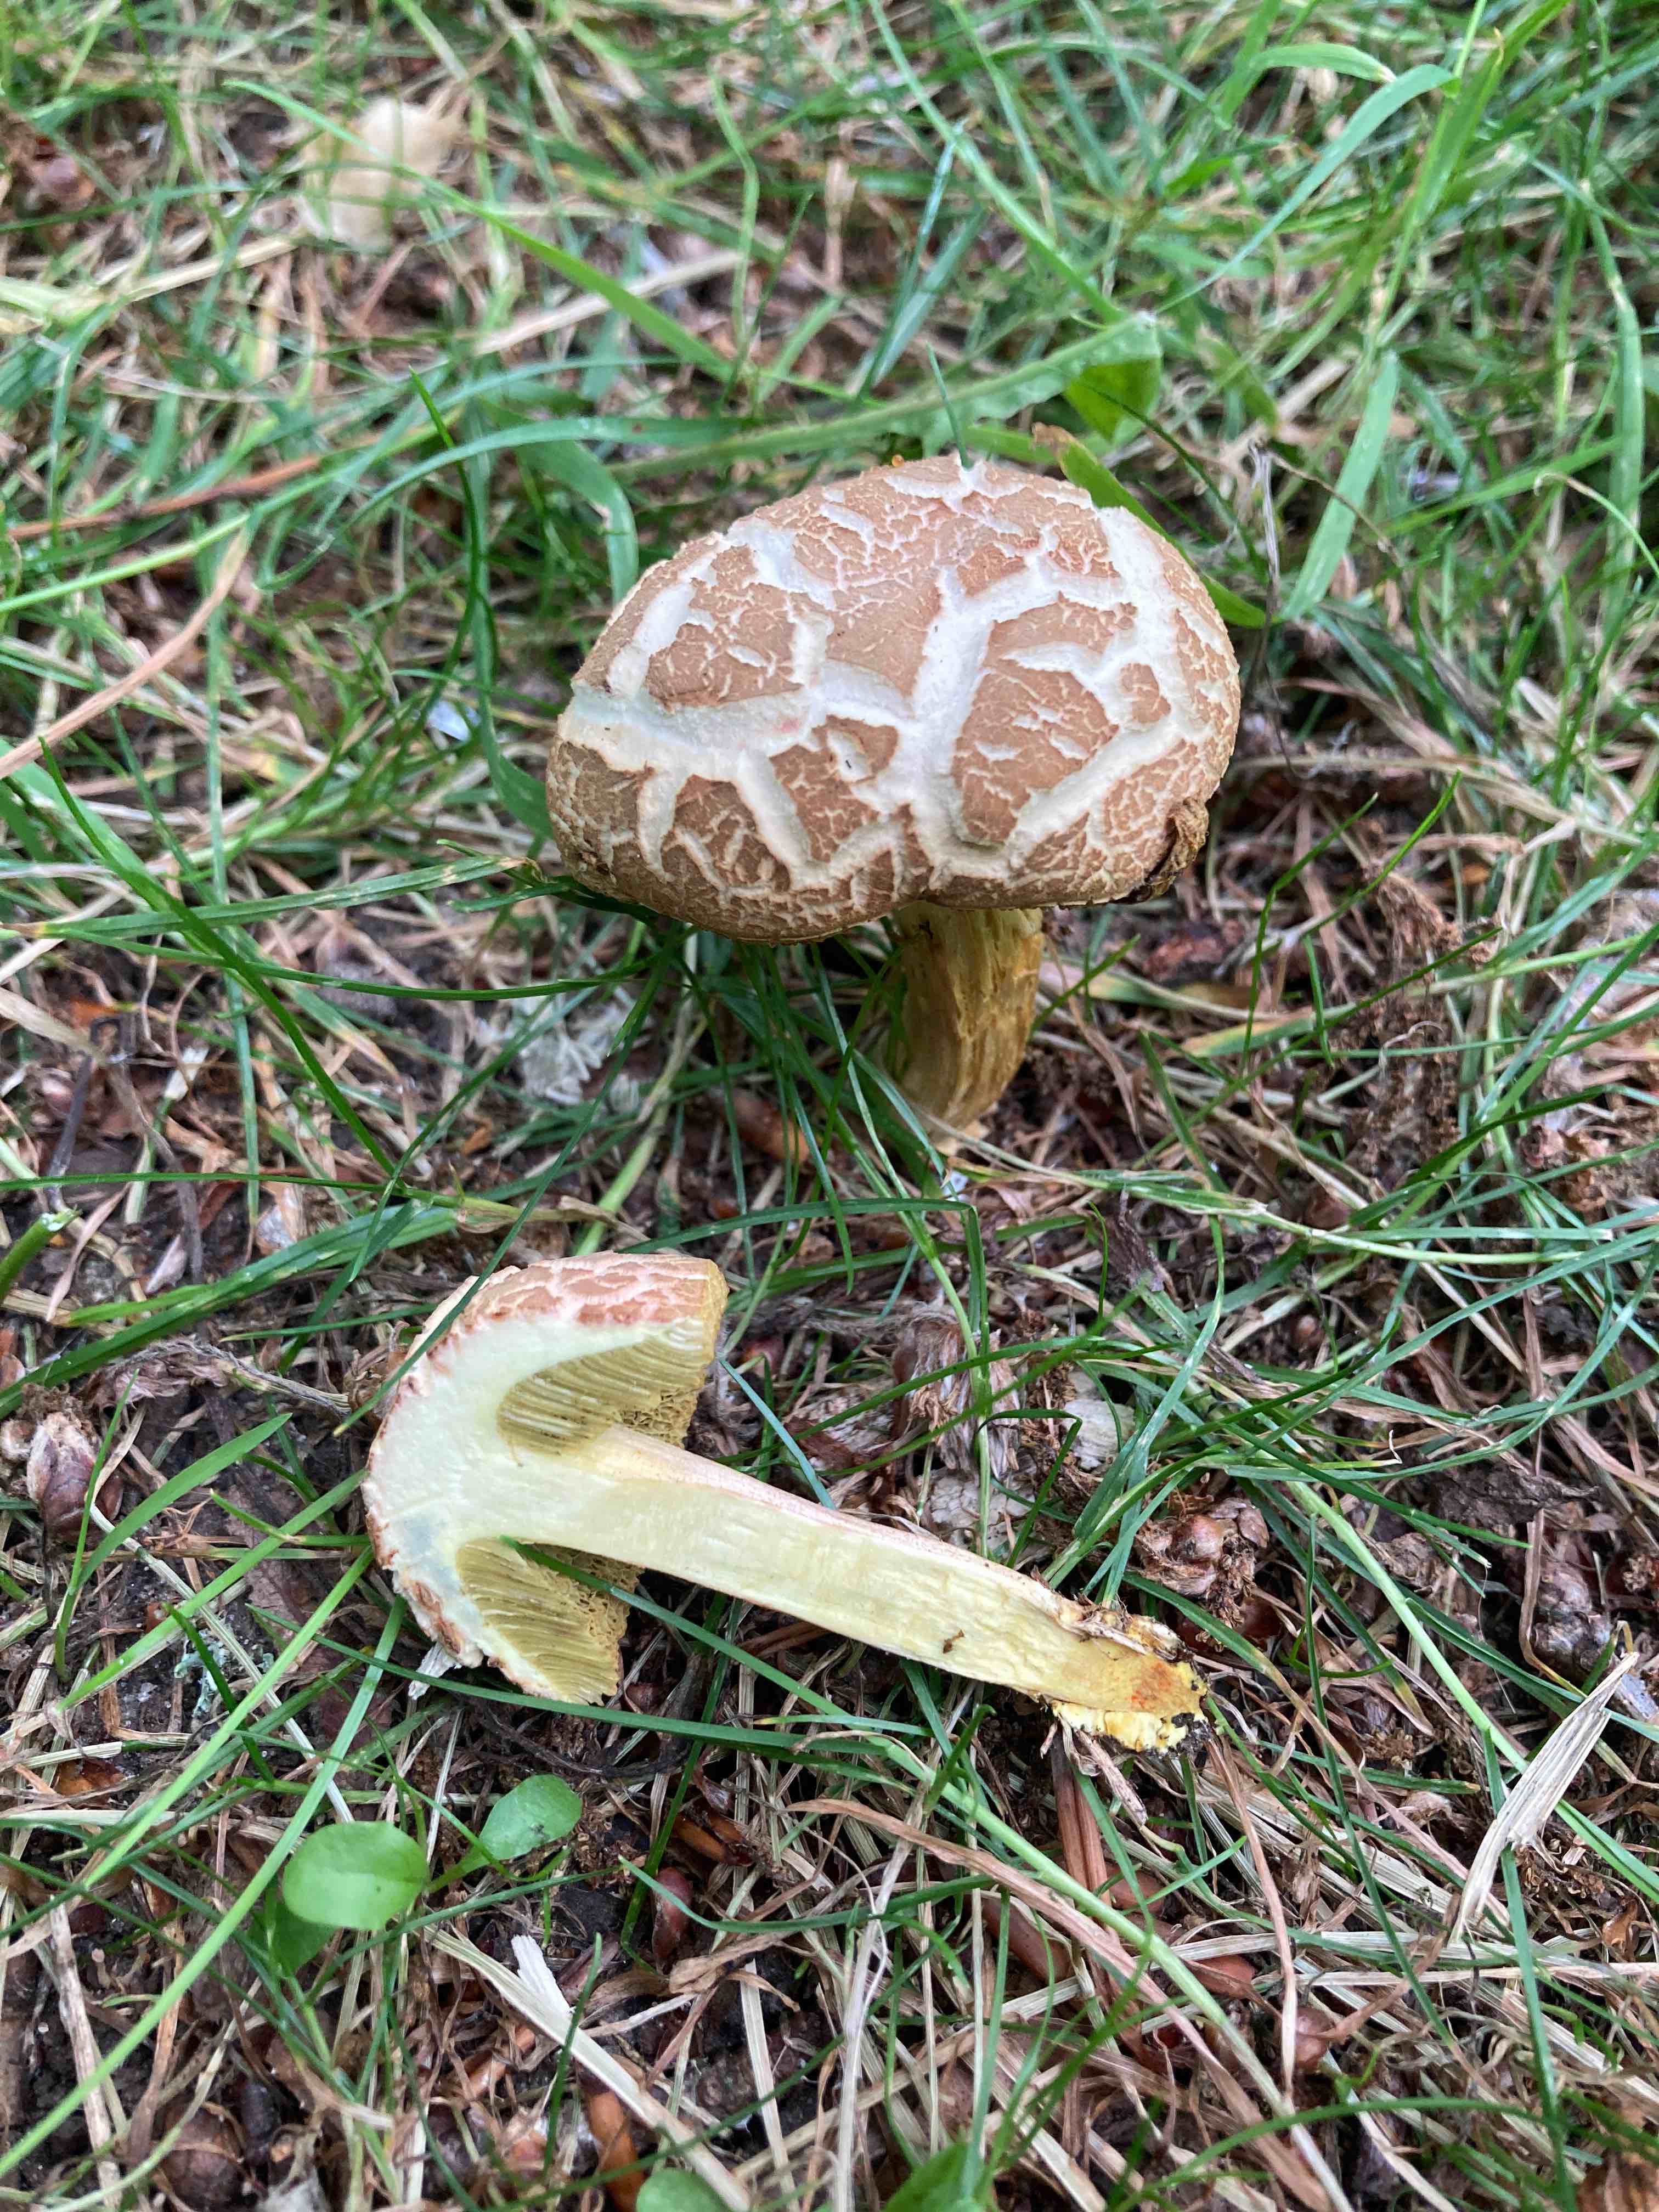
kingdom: Fungi
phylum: Basidiomycota
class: Agaricomycetes
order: Boletales
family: Boletaceae
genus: Hortiboletus
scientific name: Hortiboletus engelii
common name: fersken-rørhat
